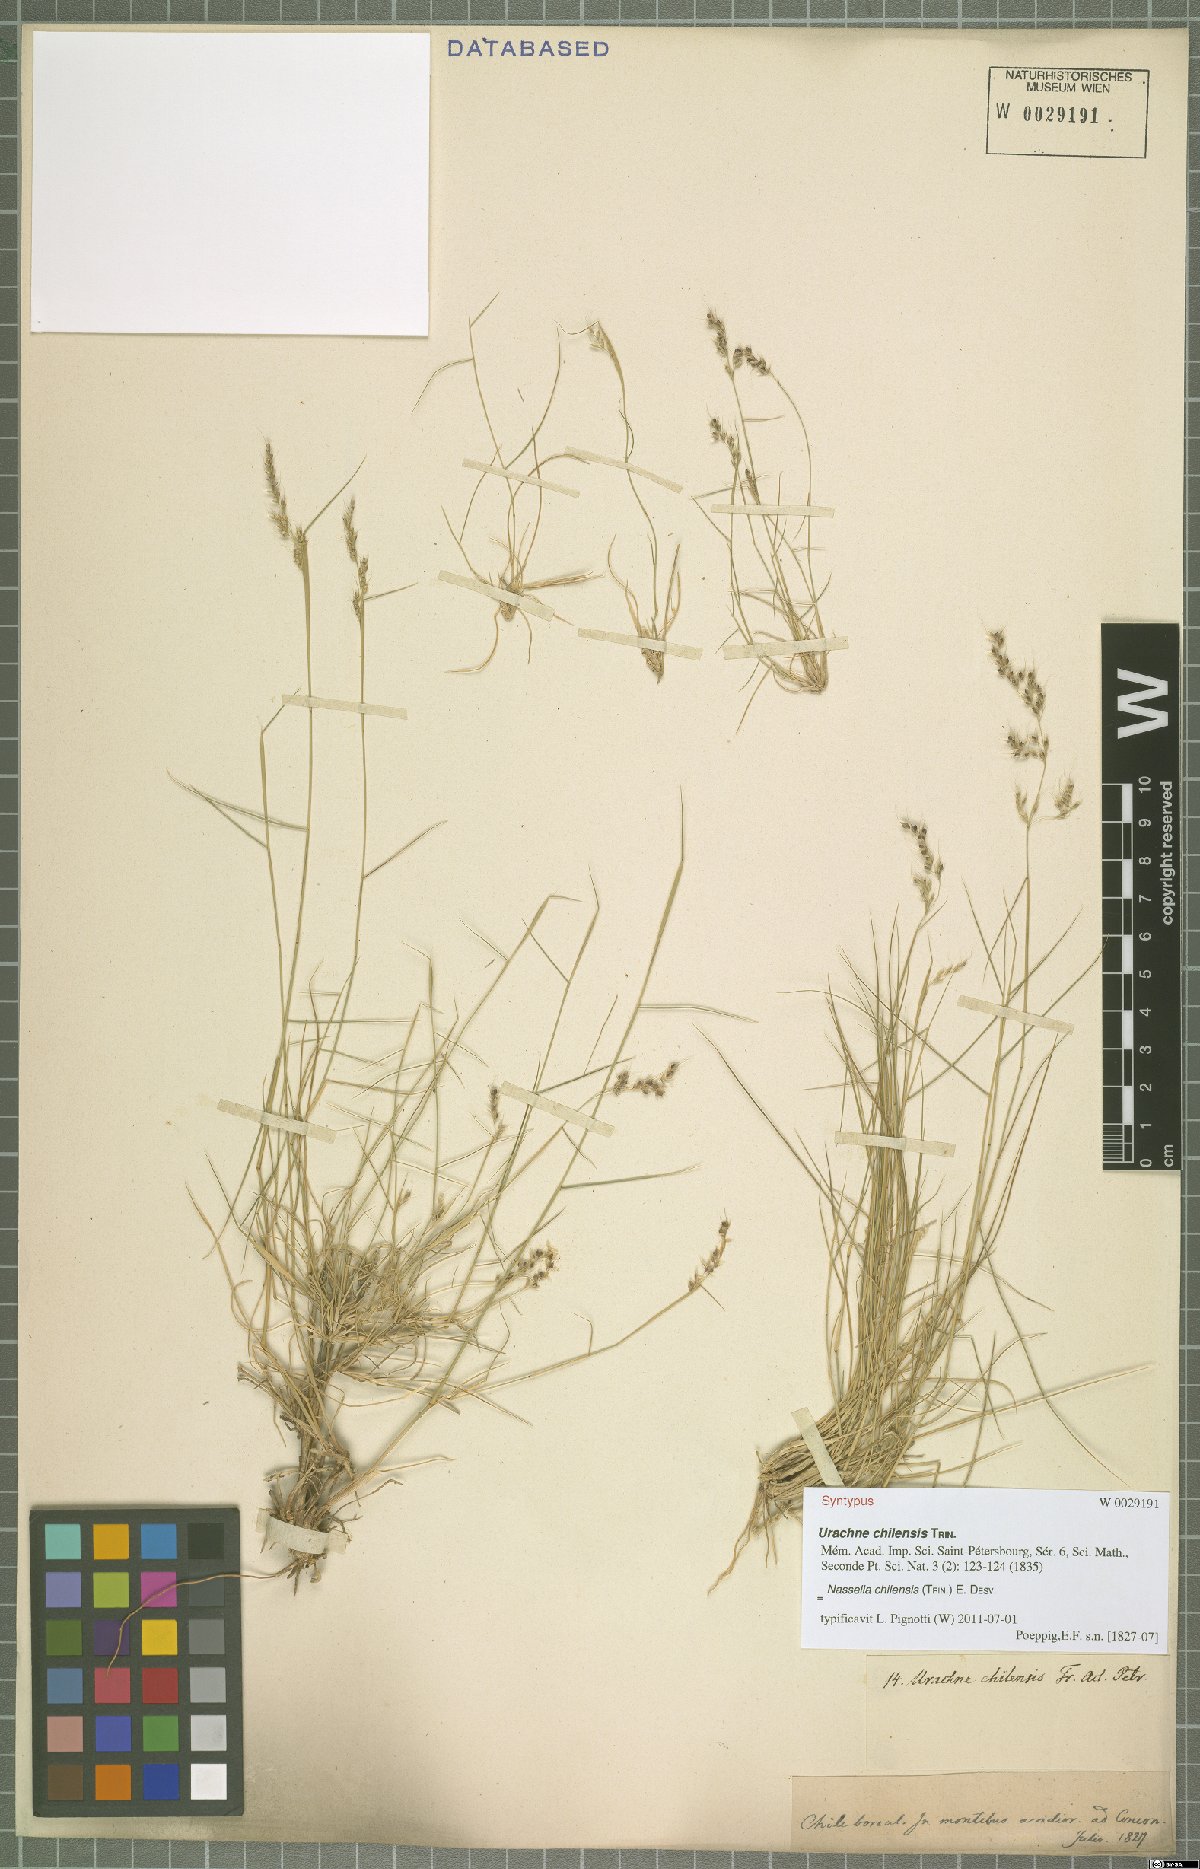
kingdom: Plantae
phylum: Tracheophyta
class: Liliopsida
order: Poales
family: Poaceae
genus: Nassella
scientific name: Nassella chilensis
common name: Chilean needlegrass
